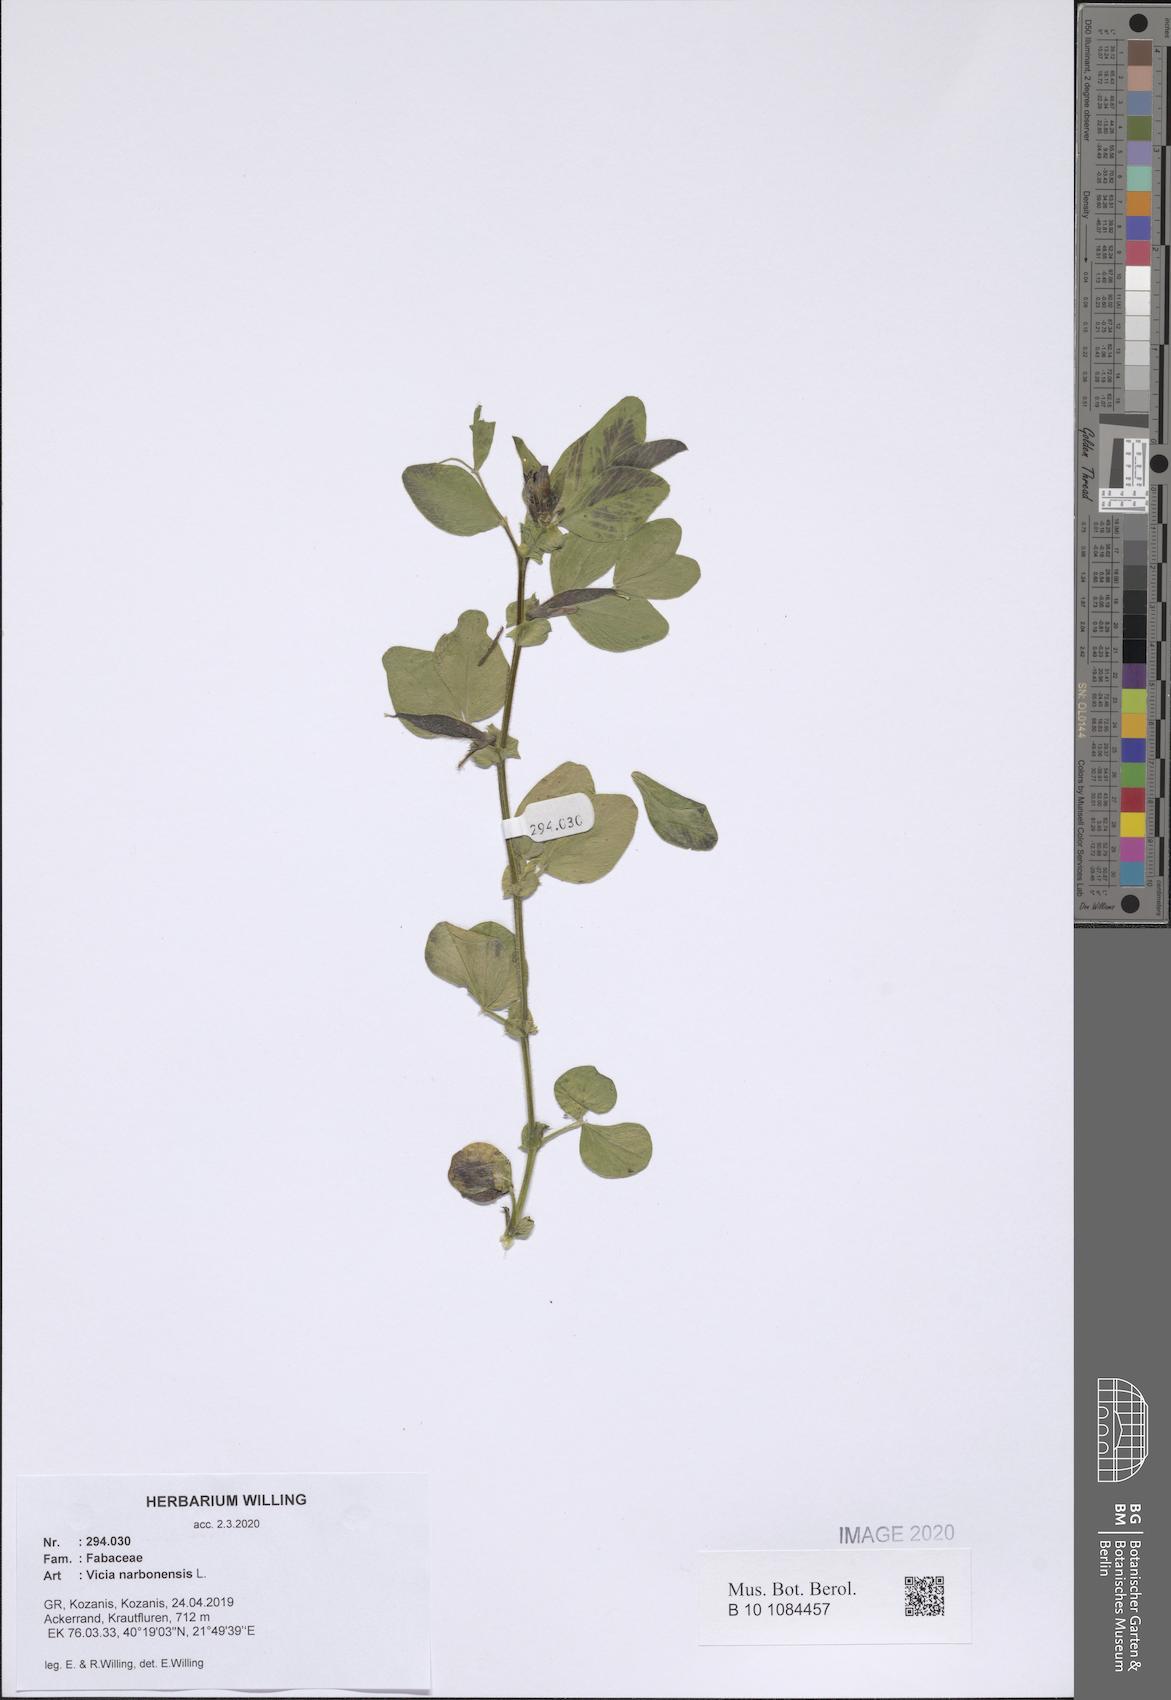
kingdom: Plantae
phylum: Tracheophyta
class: Magnoliopsida
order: Fabales
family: Fabaceae
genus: Vicia
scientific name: Vicia narbonensis
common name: Narbonne vetch
